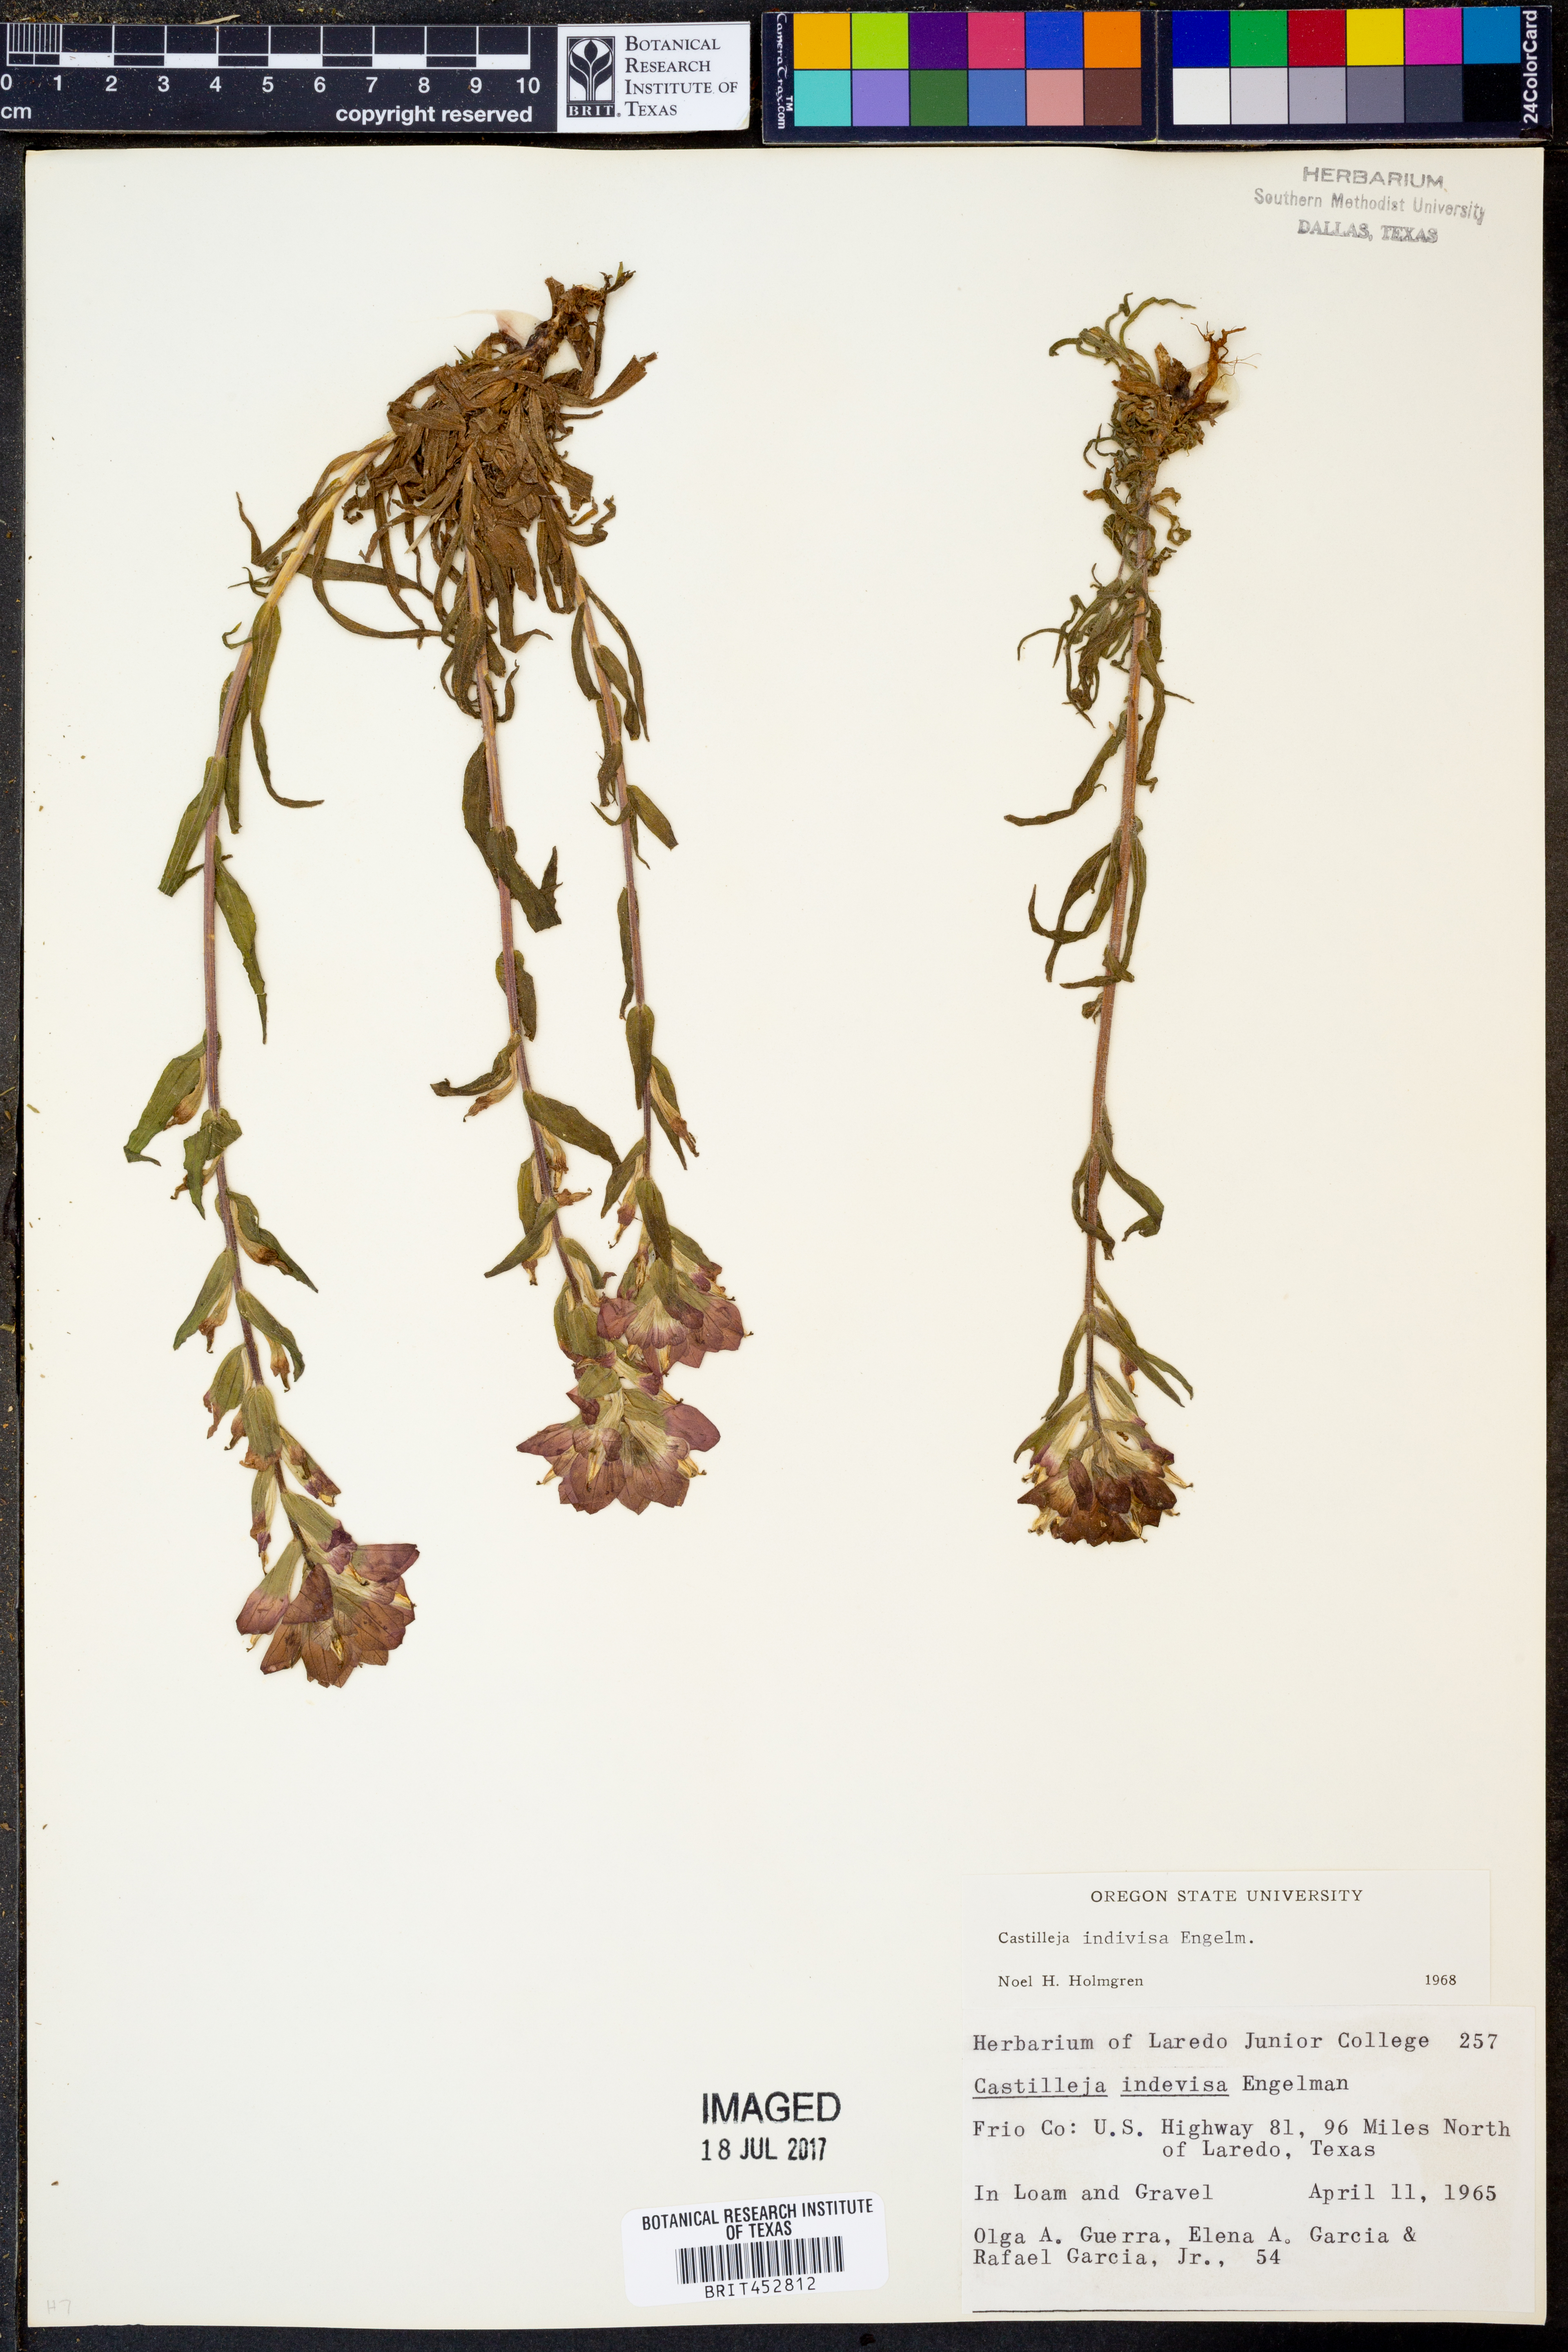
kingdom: Plantae
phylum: Tracheophyta
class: Magnoliopsida
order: Lamiales
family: Orobanchaceae
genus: Castilleja
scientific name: Castilleja indivisa
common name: Texas paintbrush
